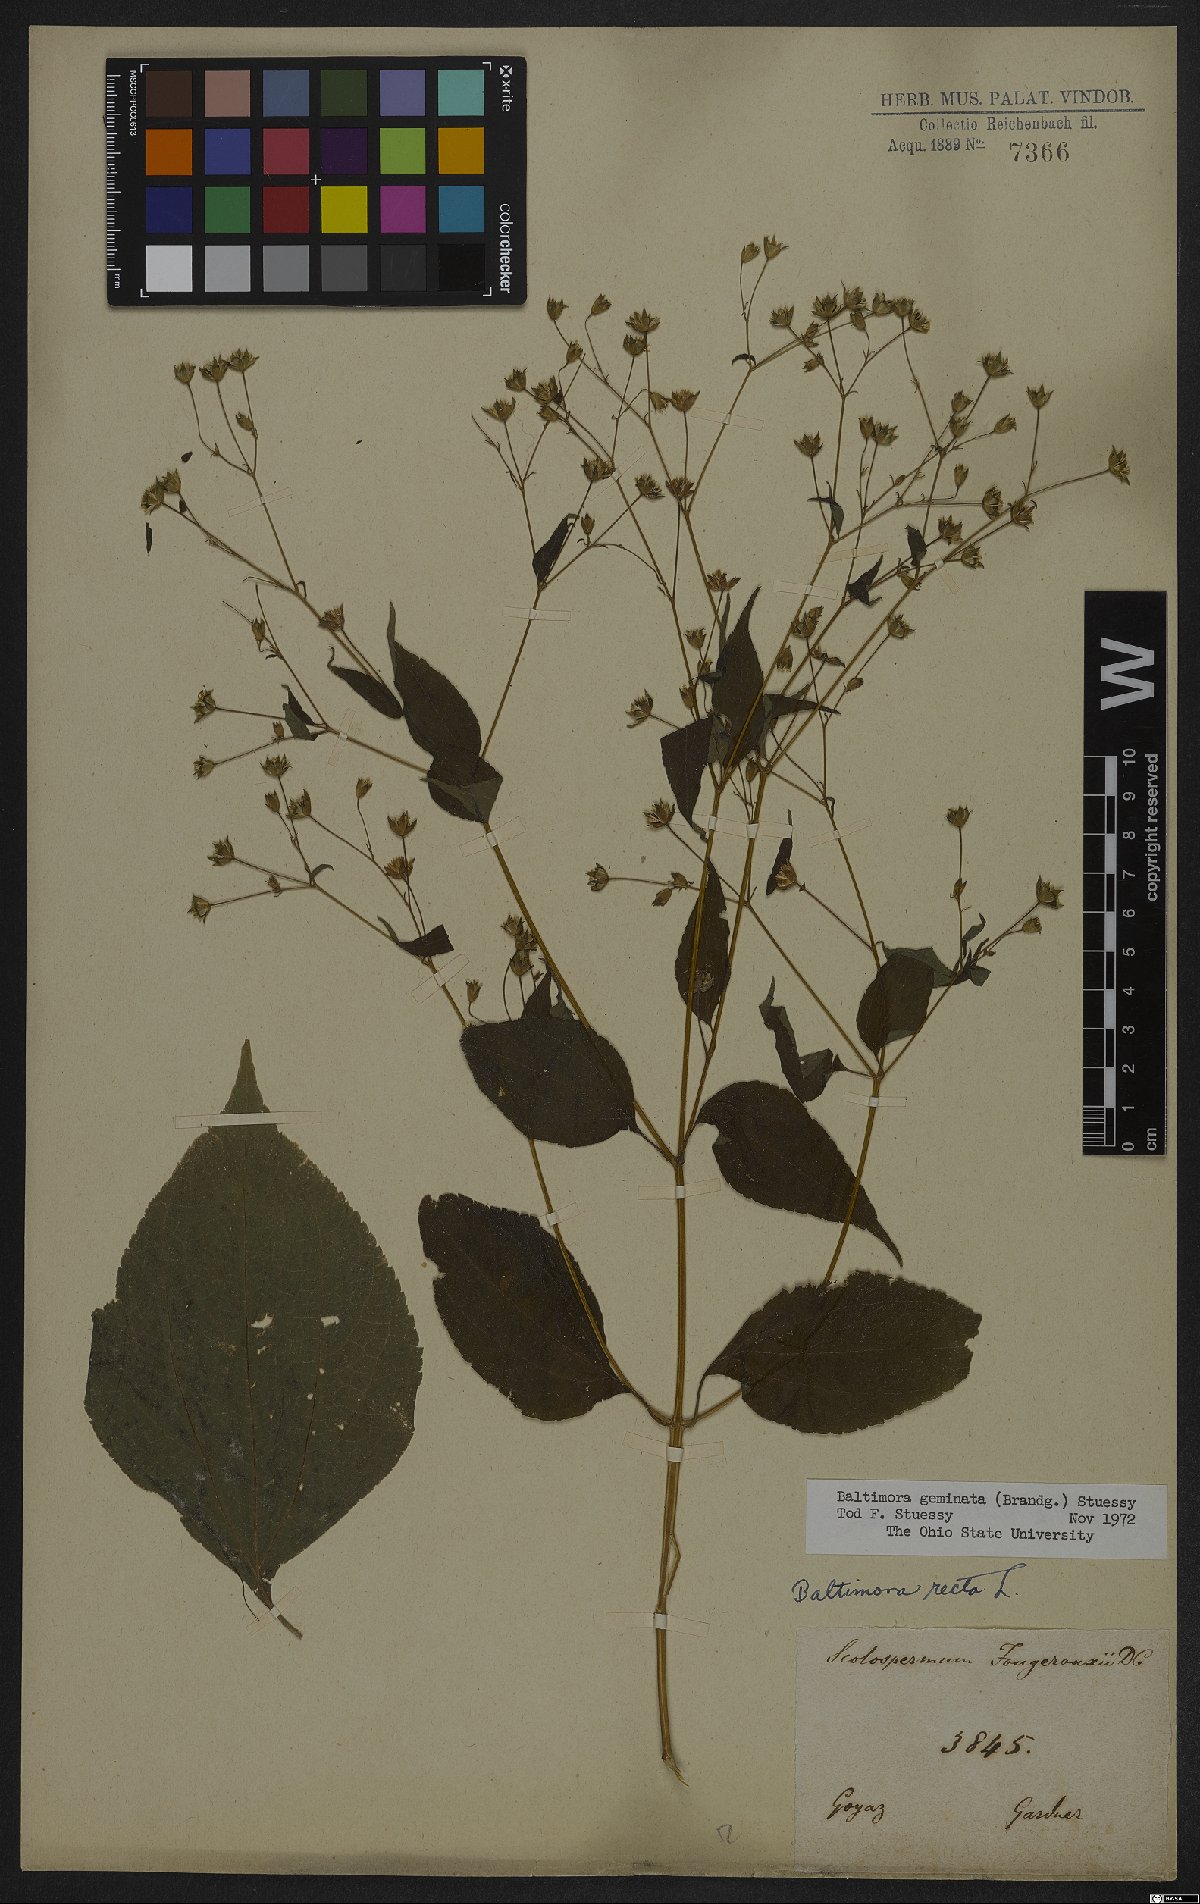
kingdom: Plantae
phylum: Tracheophyta
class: Magnoliopsida
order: Asterales
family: Asteraceae
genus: Baltimora
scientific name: Baltimora geminata
